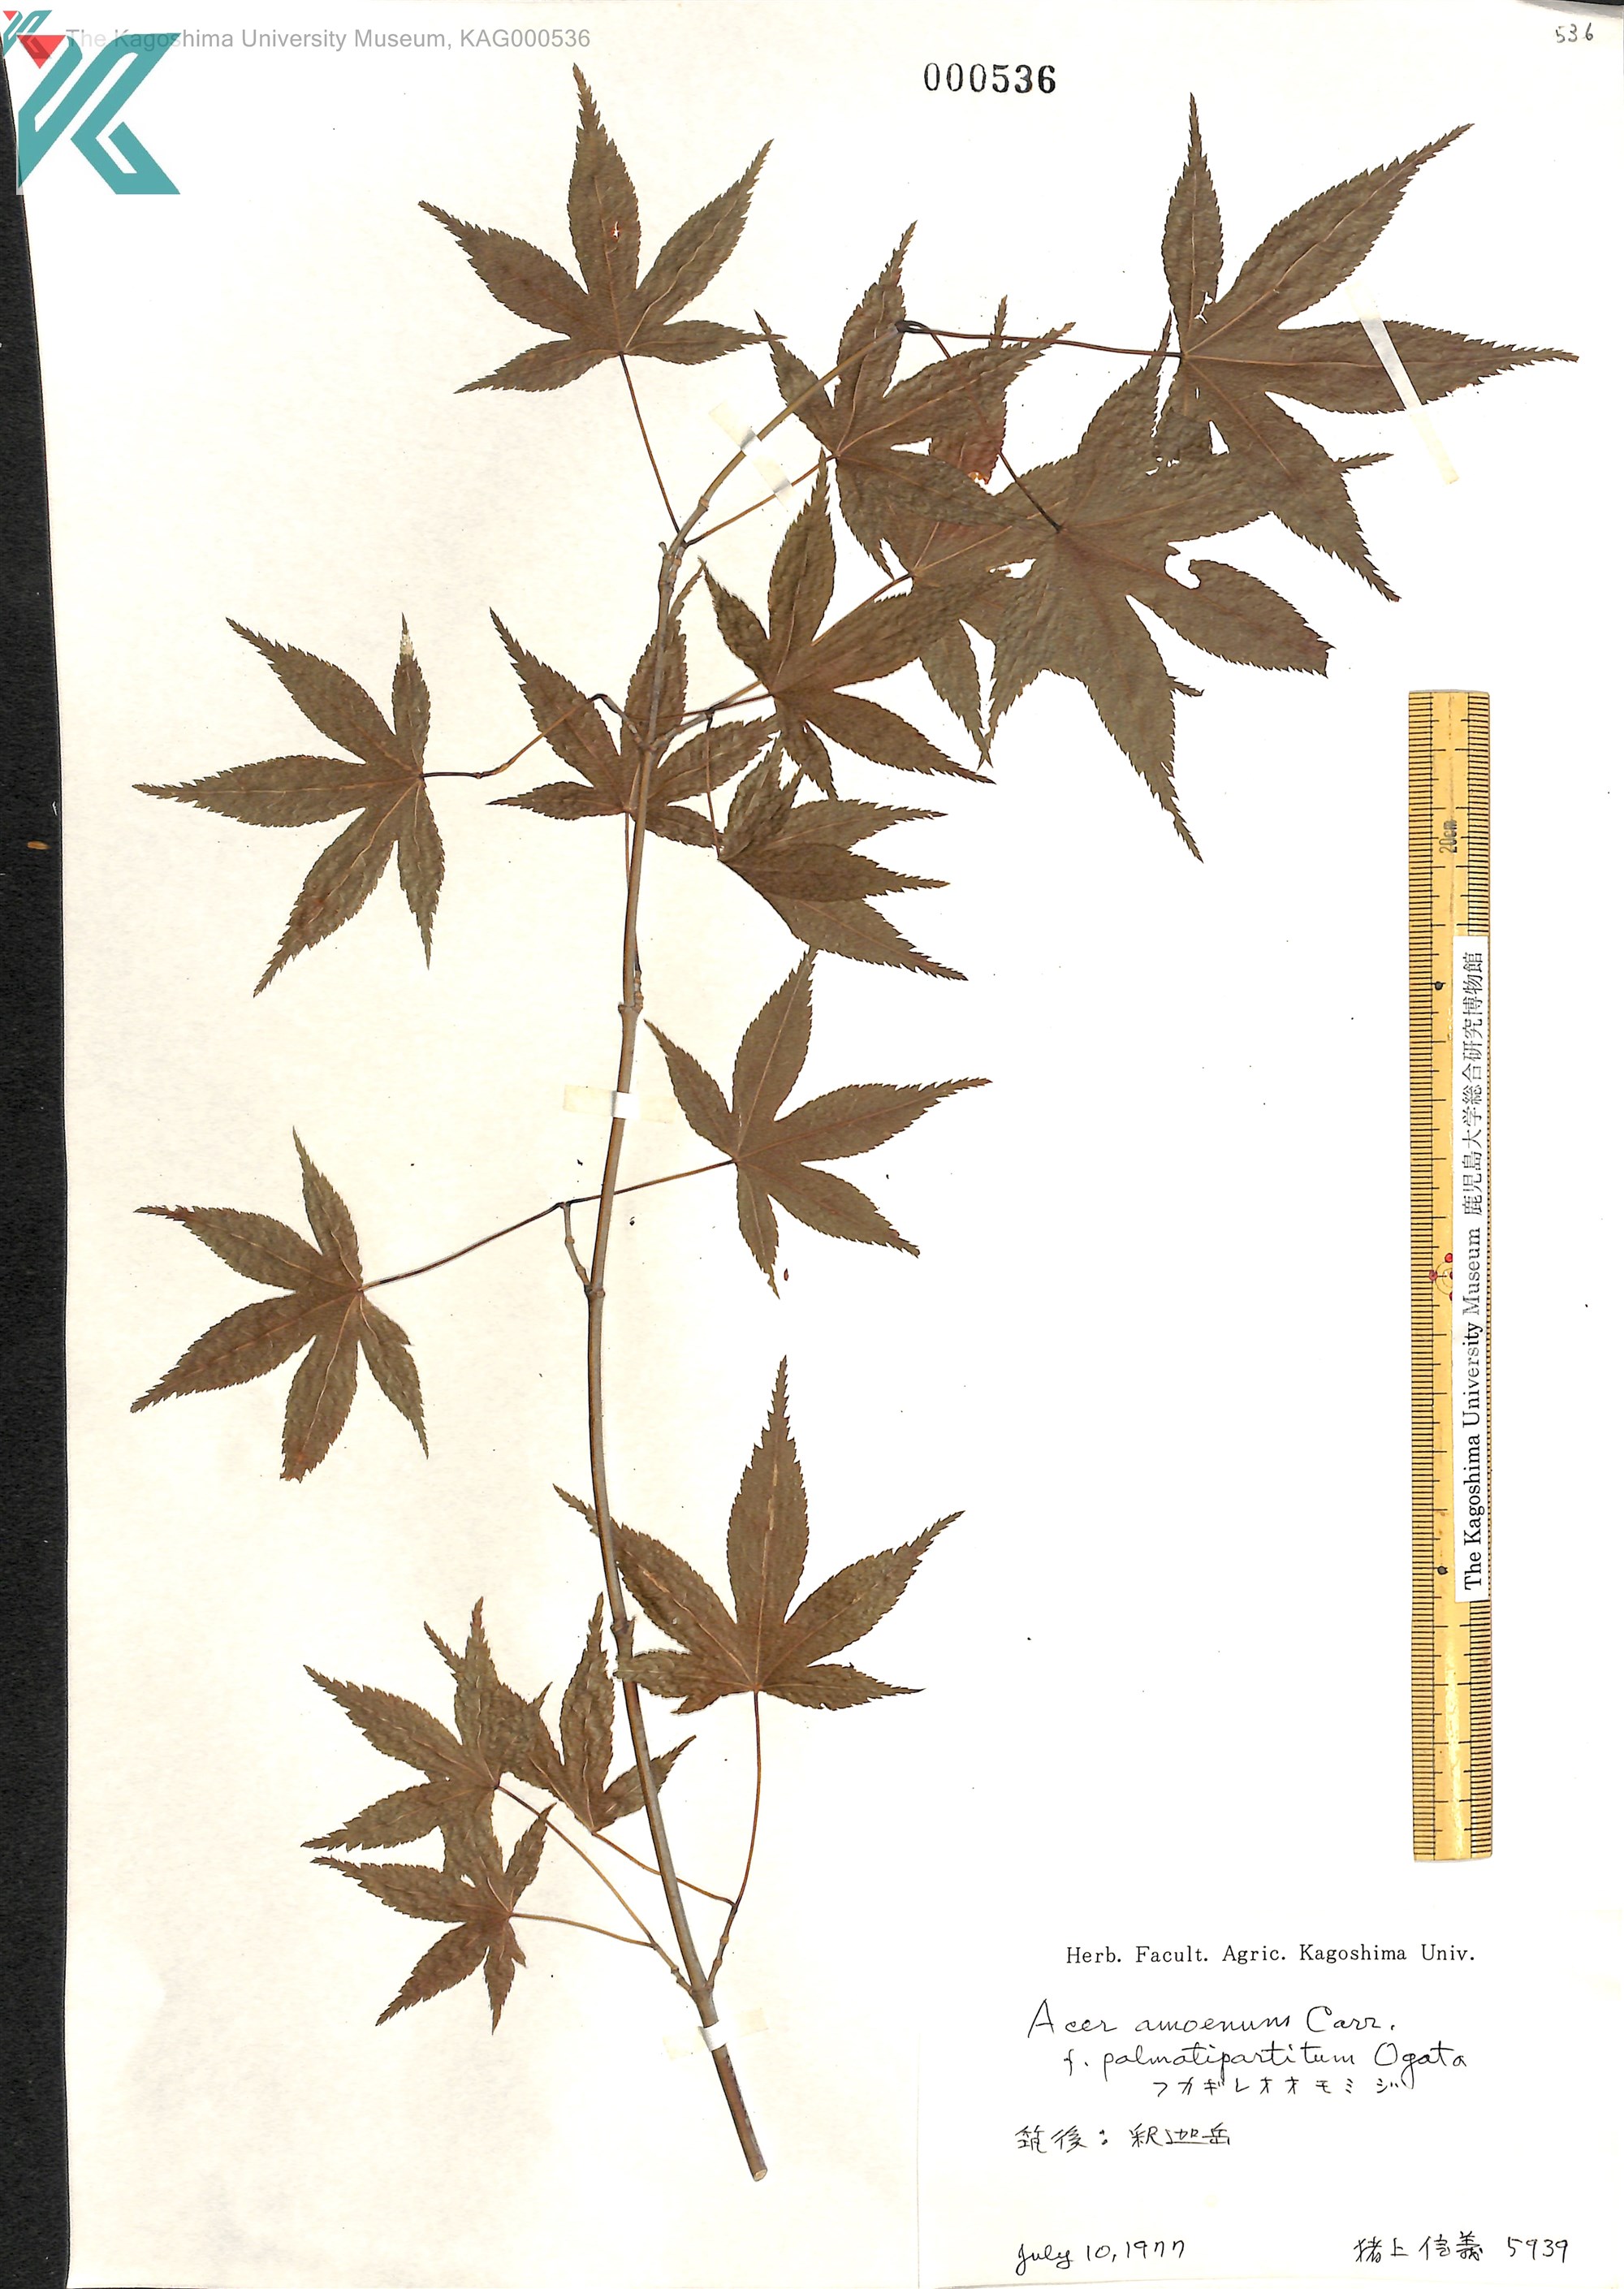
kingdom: Plantae
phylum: Tracheophyta
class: Magnoliopsida
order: Sapindales
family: Sapindaceae
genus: Acer
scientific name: Acer palmatum
